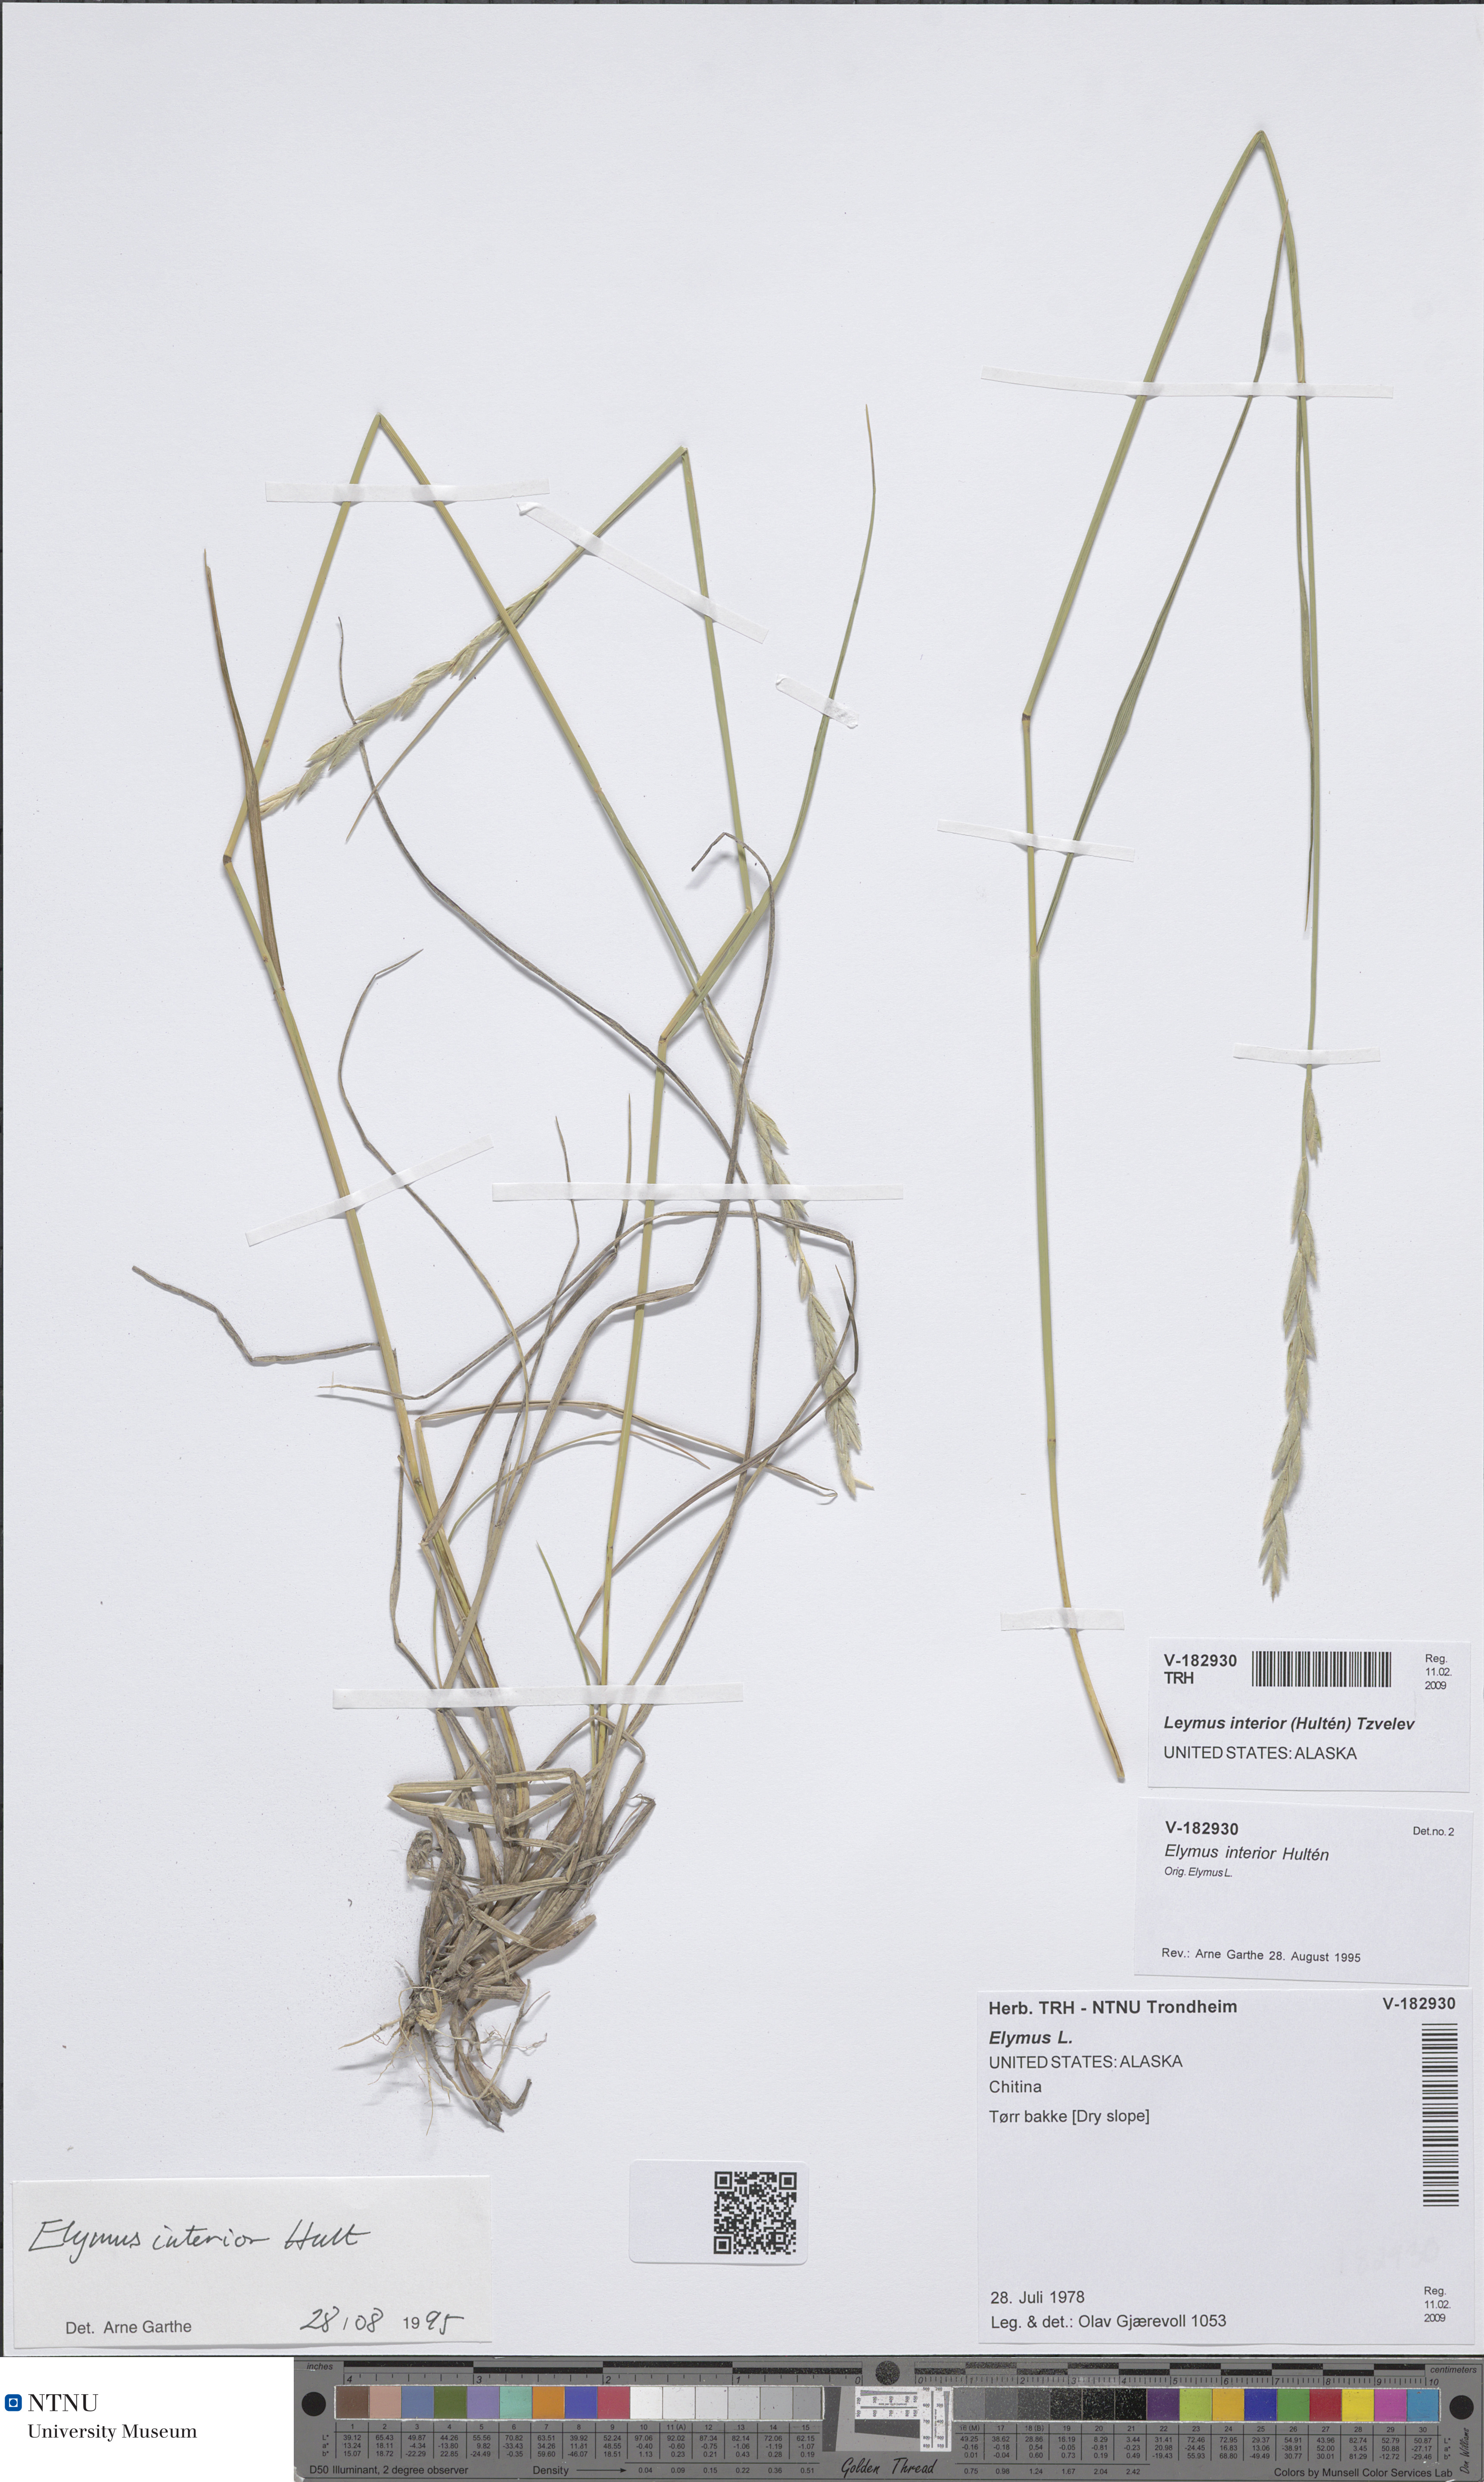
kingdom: Plantae
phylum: Tracheophyta
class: Liliopsida
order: Poales
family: Poaceae
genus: Leymus
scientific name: Leymus ajanensis
